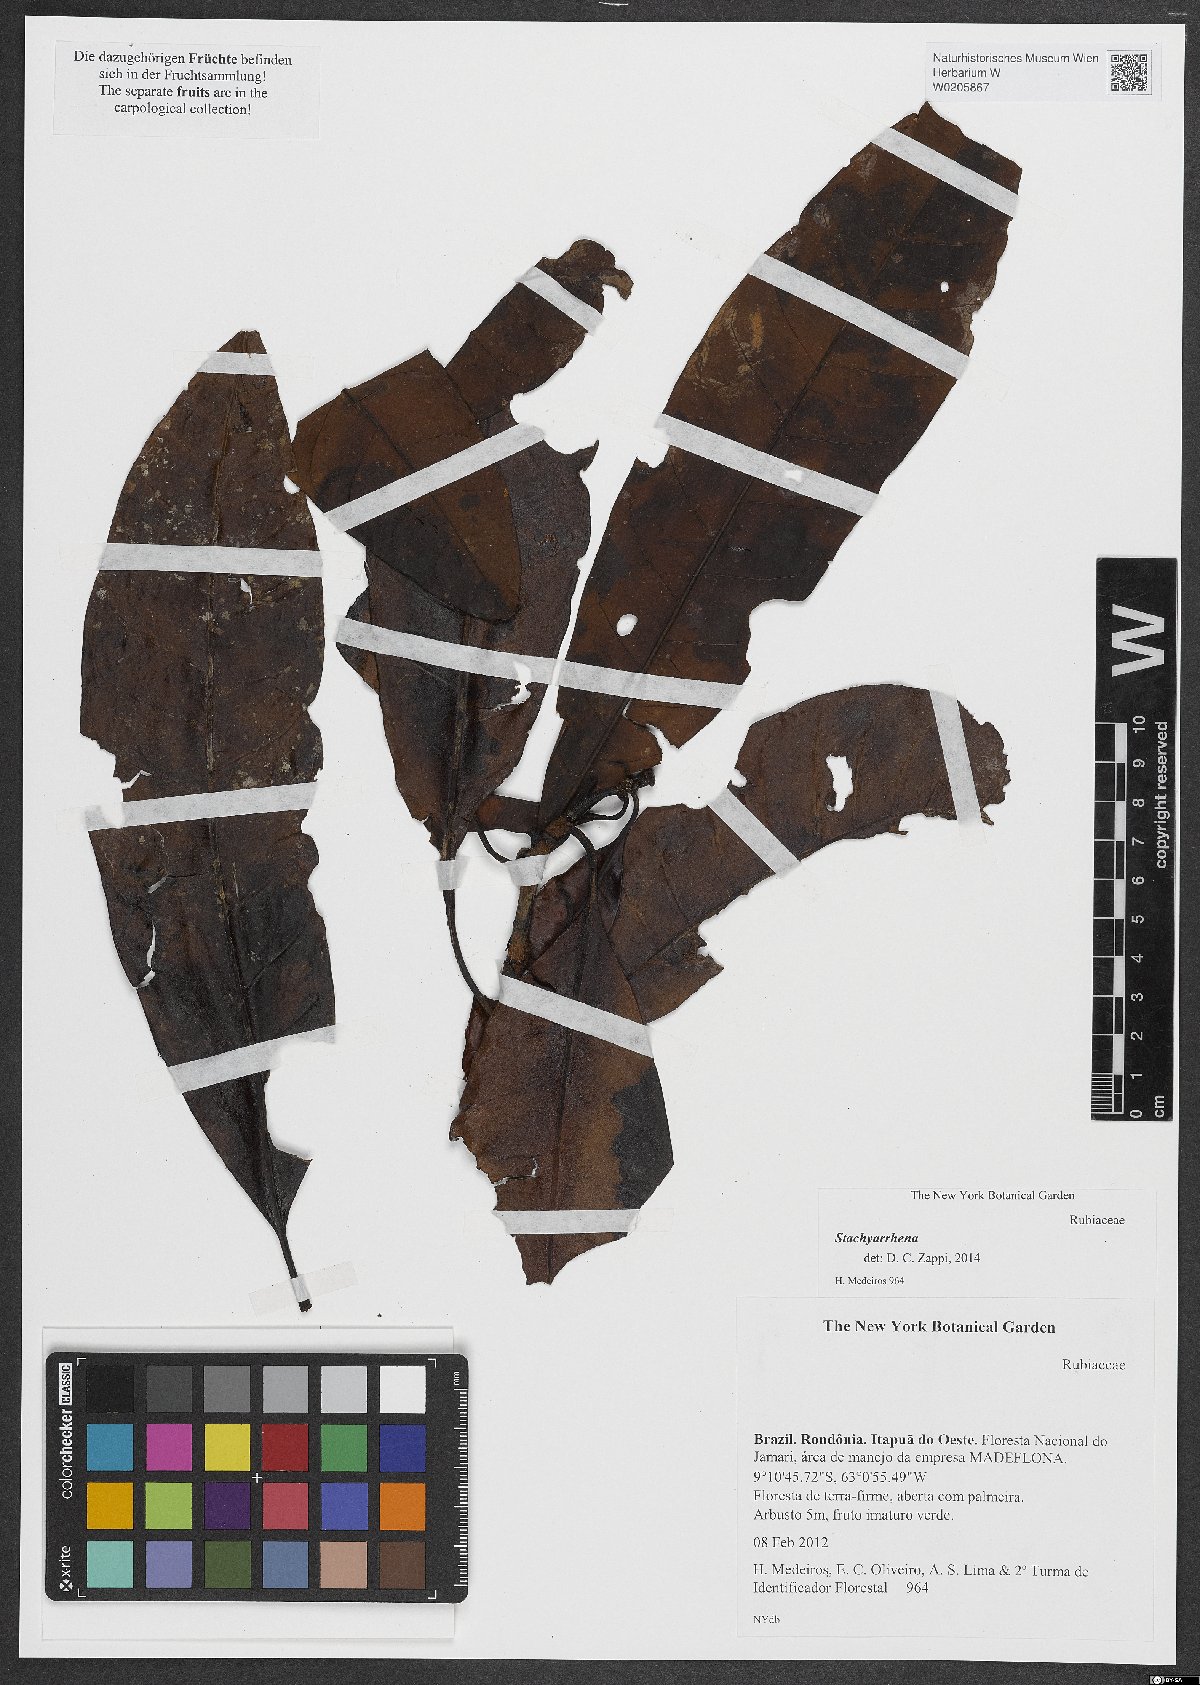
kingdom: Plantae
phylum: Tracheophyta
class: Magnoliopsida
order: Gentianales
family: Rubiaceae
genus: Stachyarrhena
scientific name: Stachyarrhena
